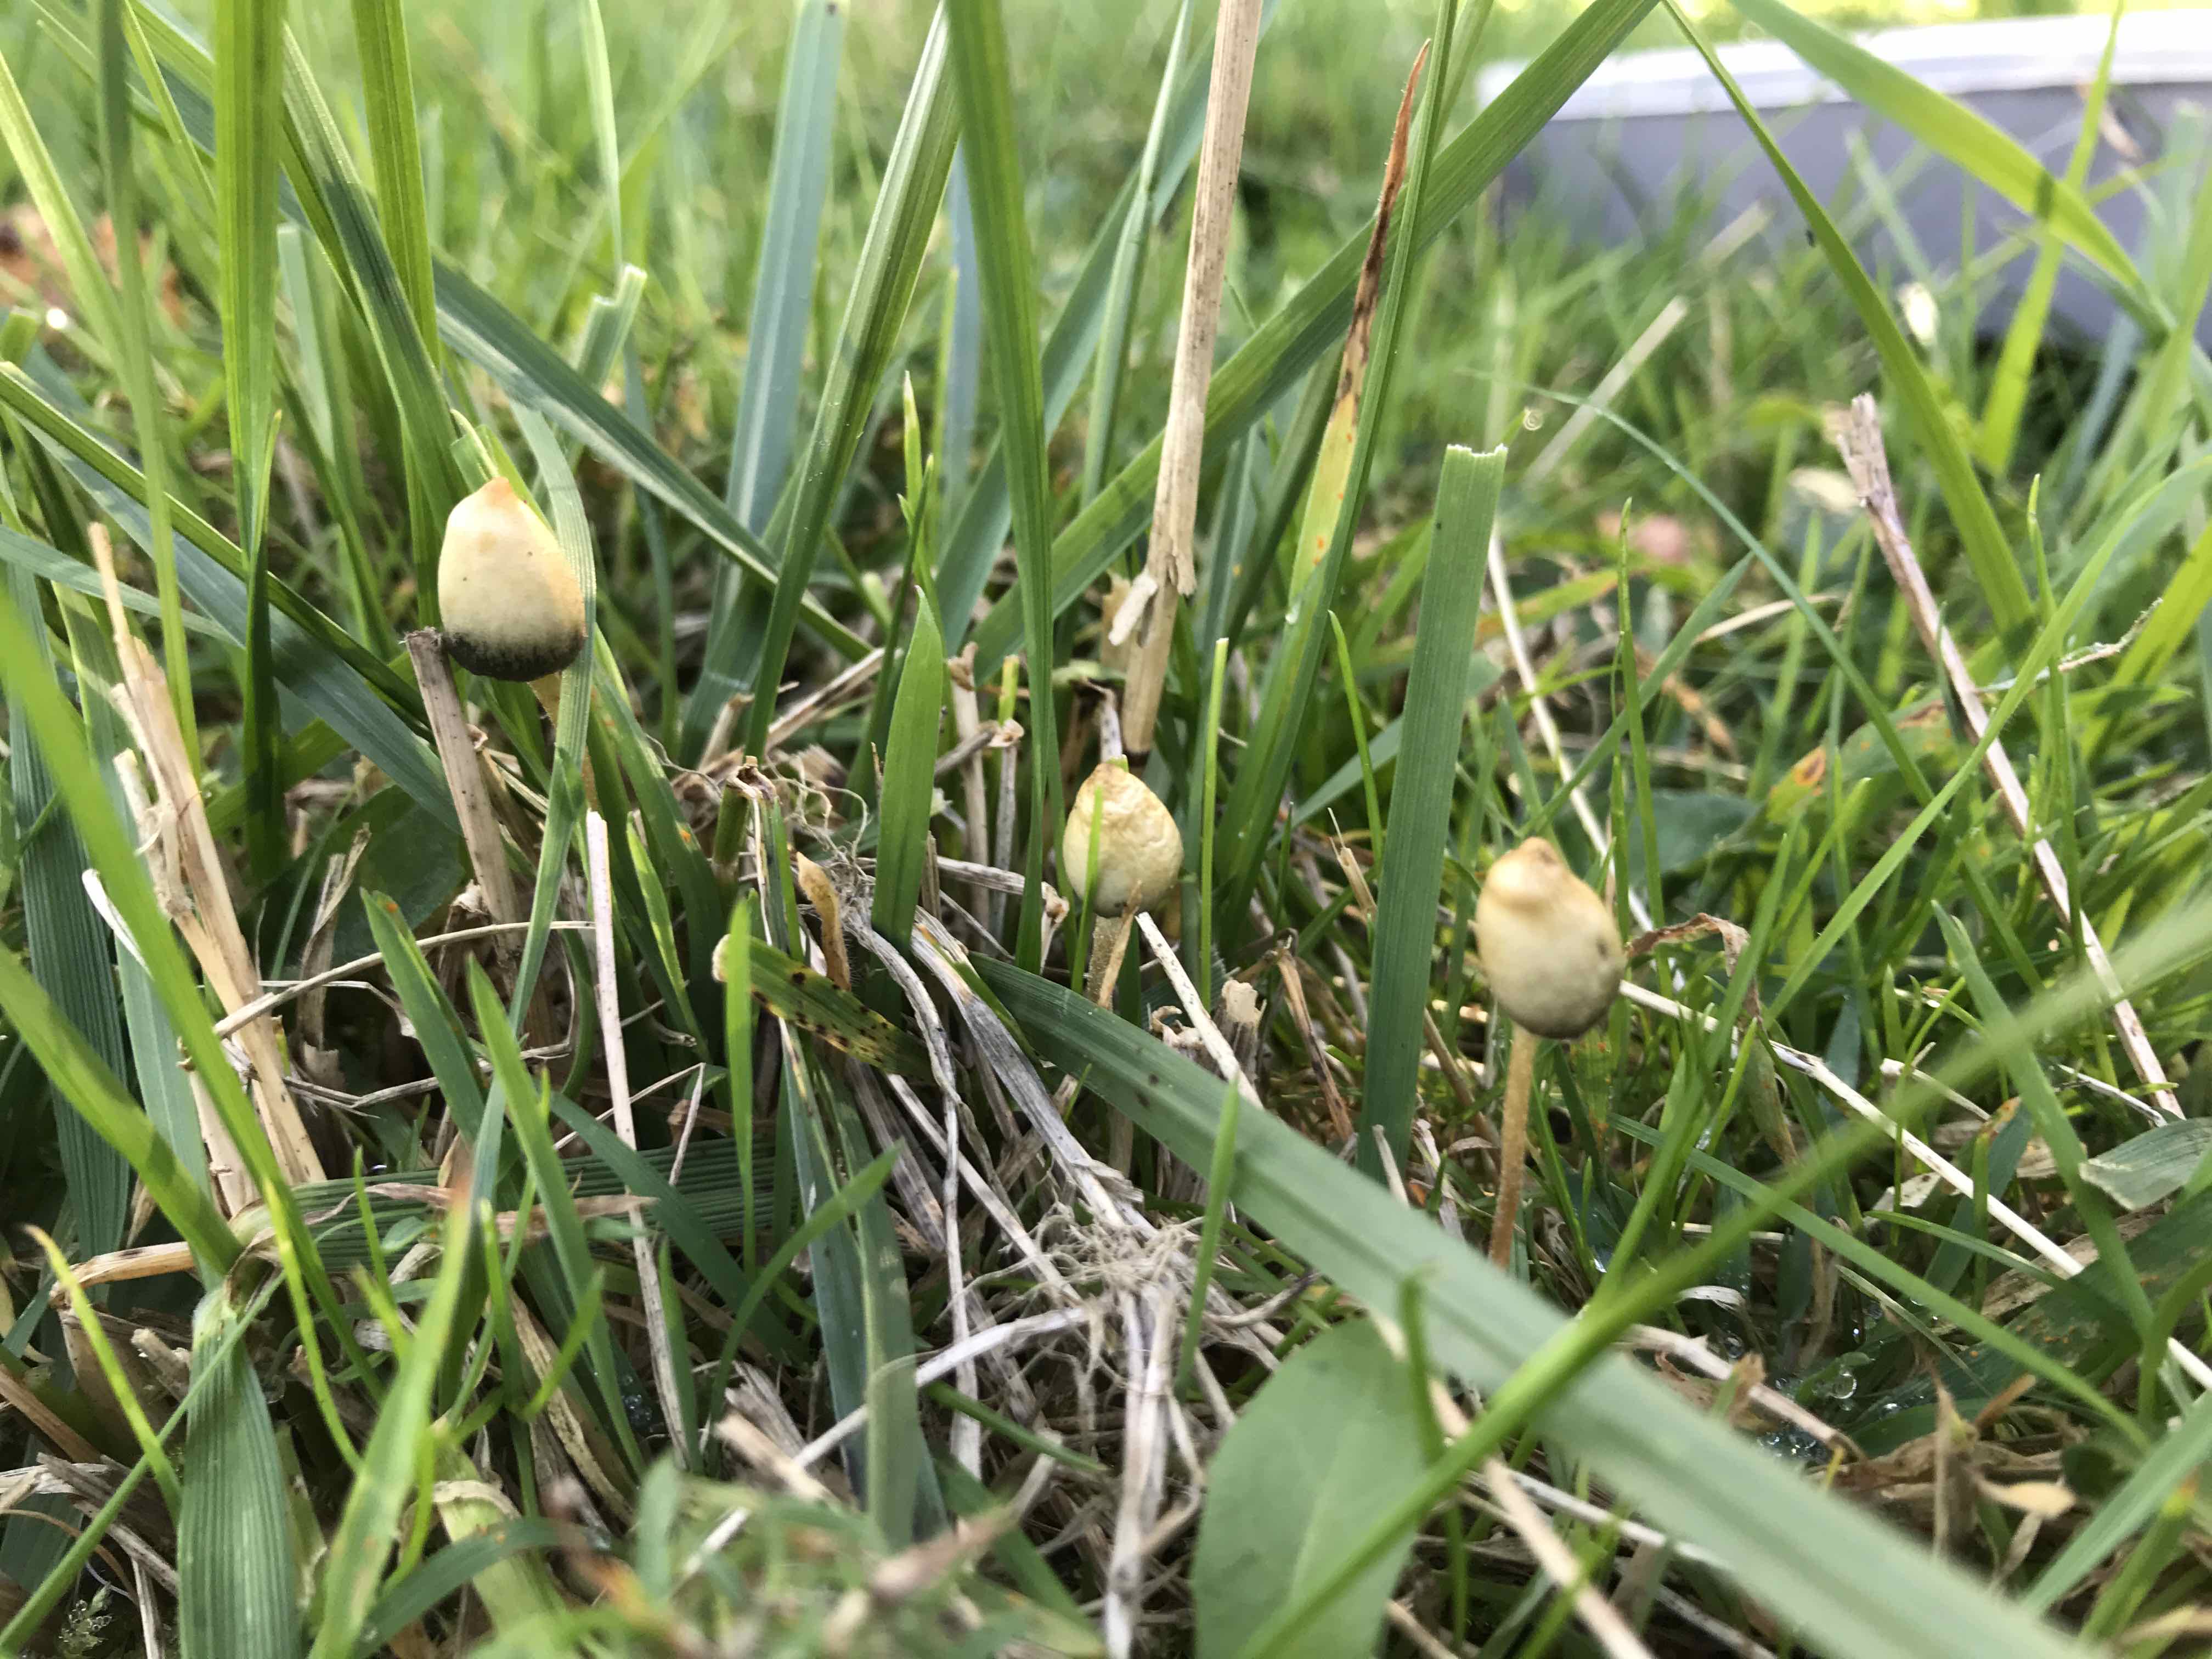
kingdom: Fungi
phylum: Basidiomycota
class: Agaricomycetes
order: Agaricales
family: Hymenogastraceae
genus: Psilocybe
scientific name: Psilocybe semilanceata
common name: spids nøgenhat
